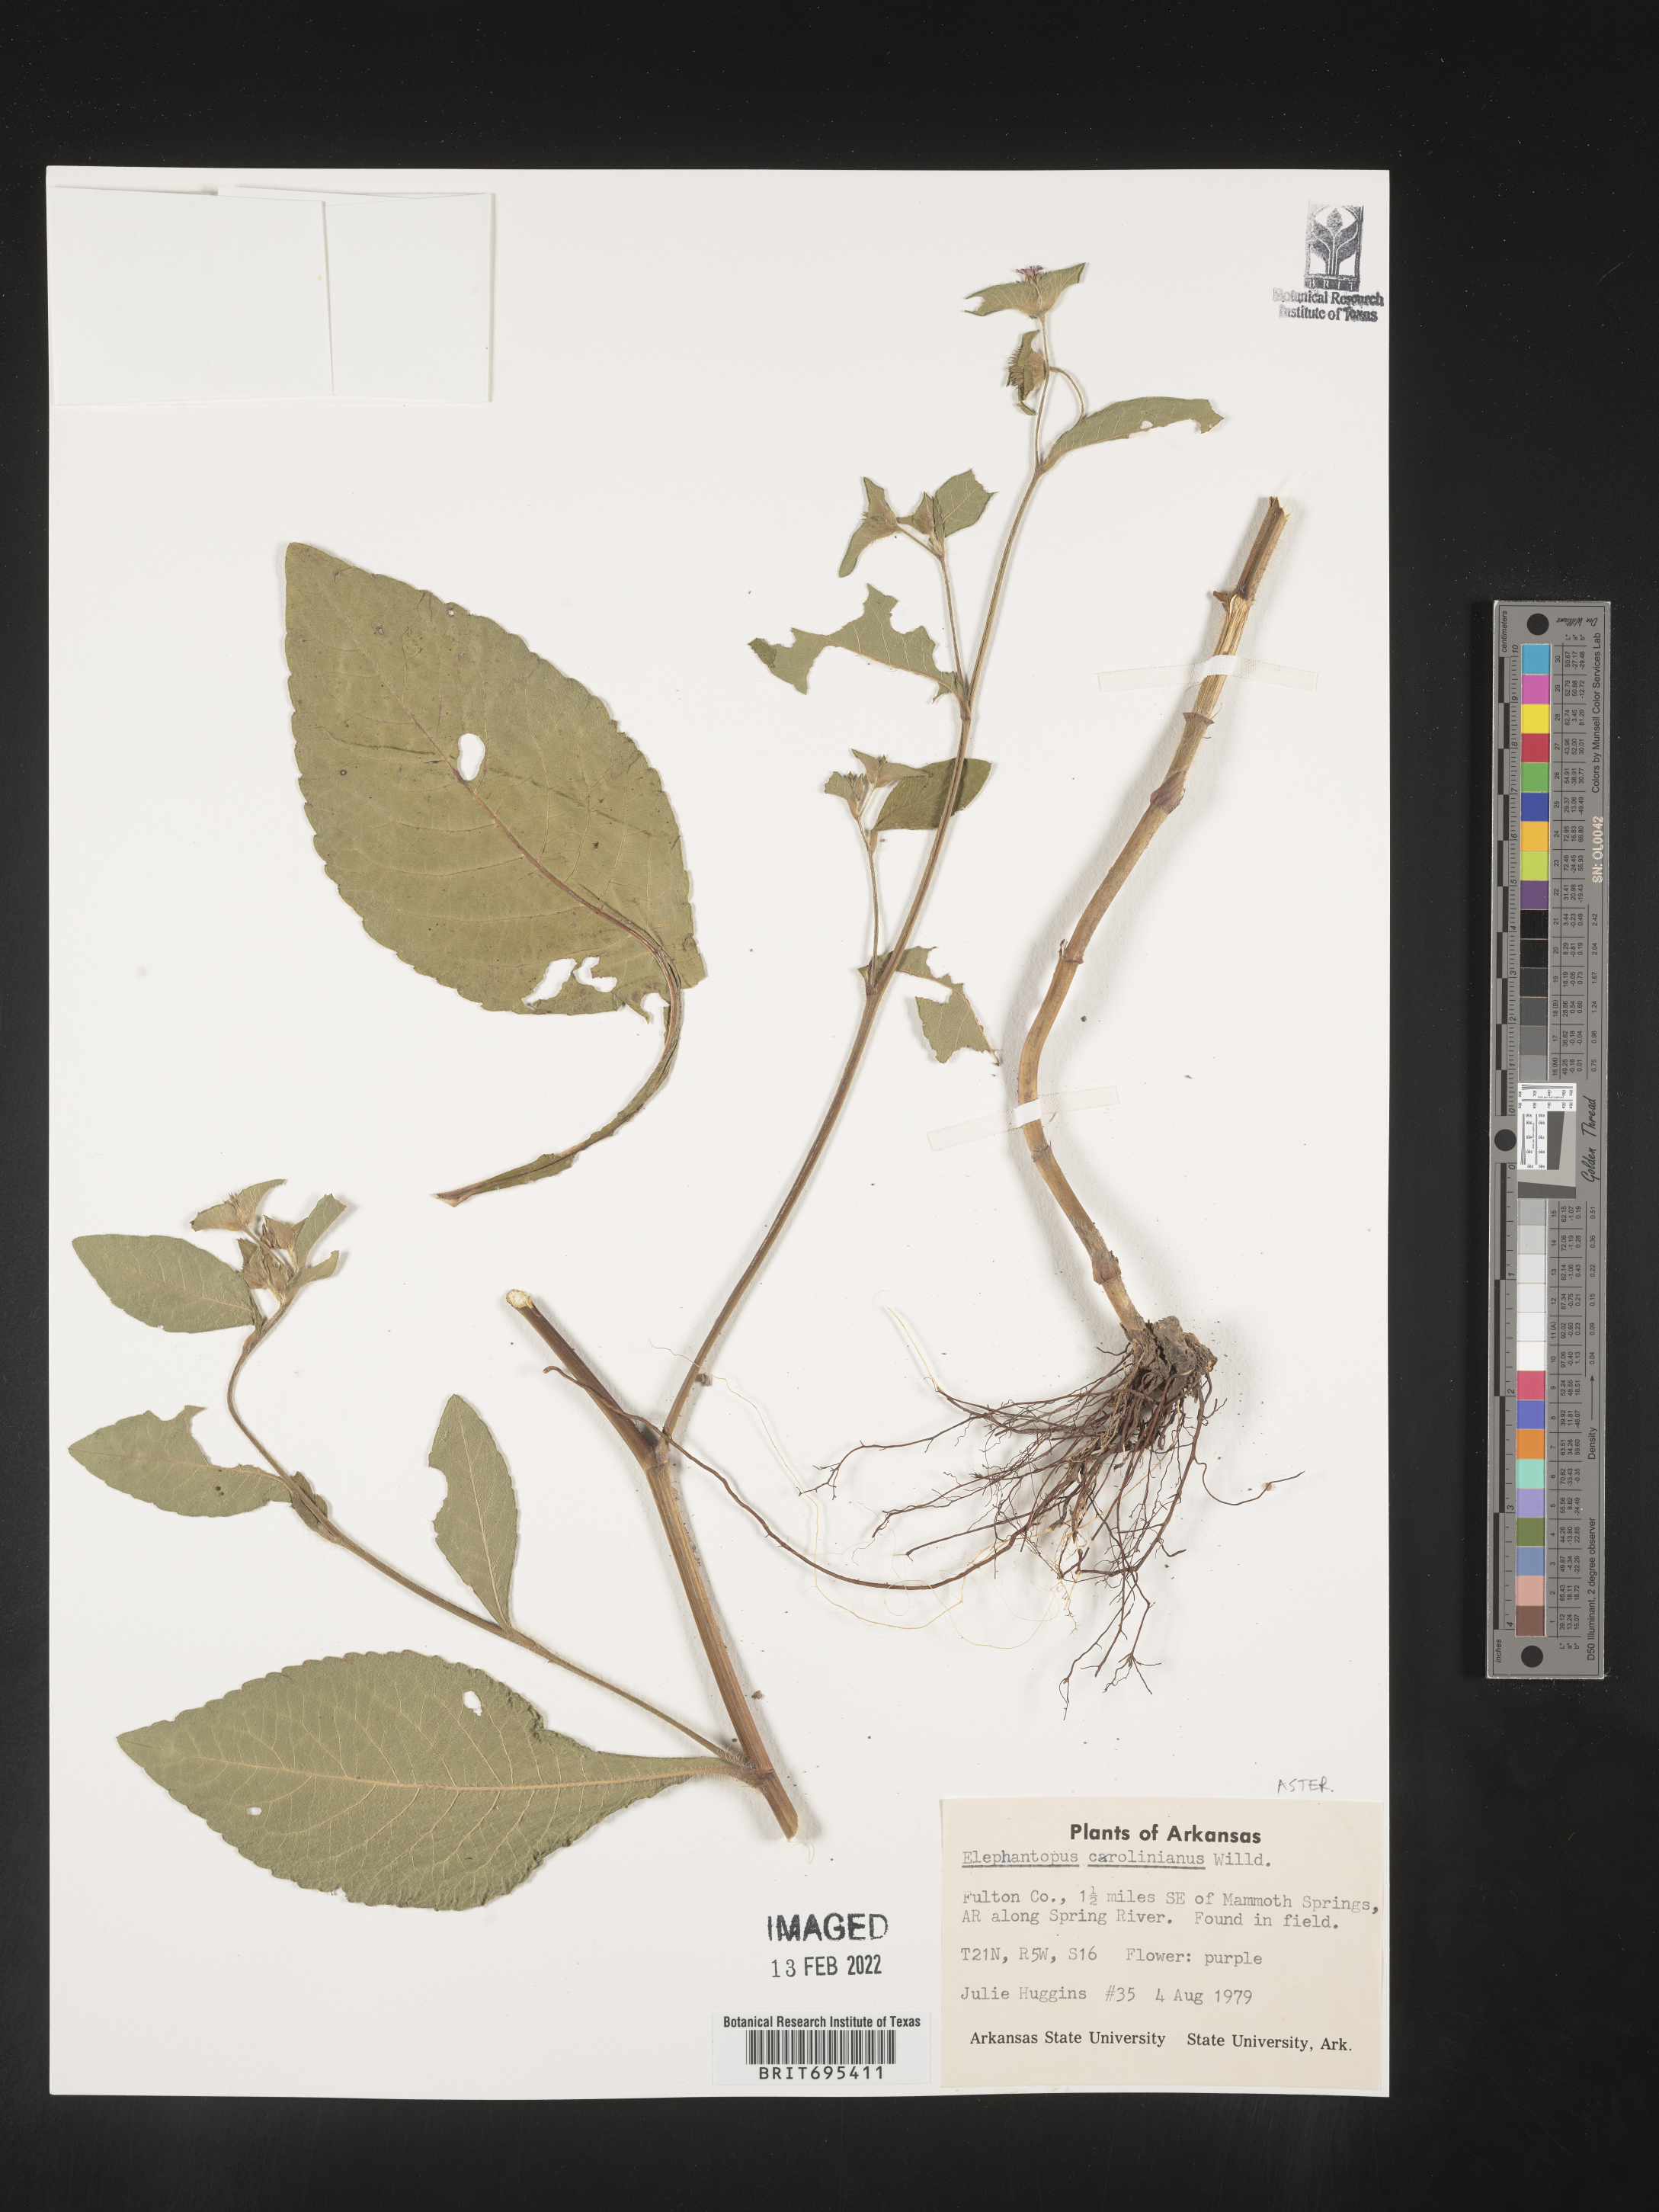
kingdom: Plantae
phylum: Tracheophyta
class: Magnoliopsida
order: Asterales
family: Asteraceae
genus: Elephantopus
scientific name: Elephantopus carolinianus
